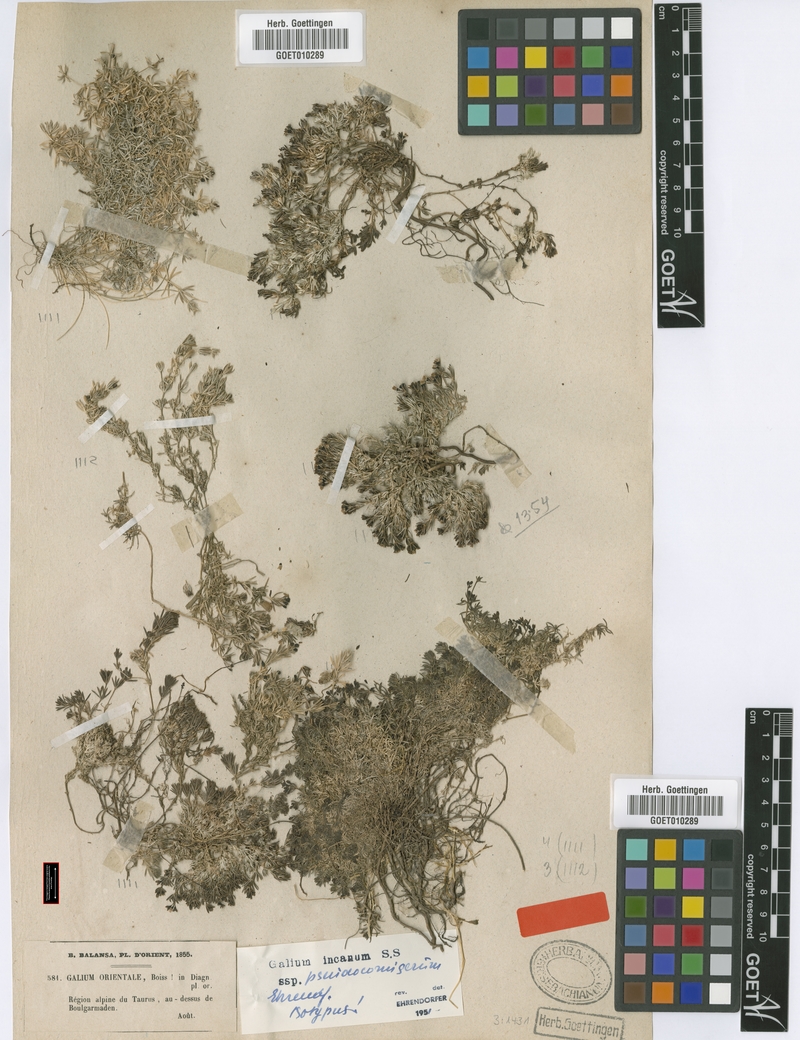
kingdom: Plantae
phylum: Tracheophyta
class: Magnoliopsida
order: Gentianales
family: Rubiaceae
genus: Galium
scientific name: Galium incanum
